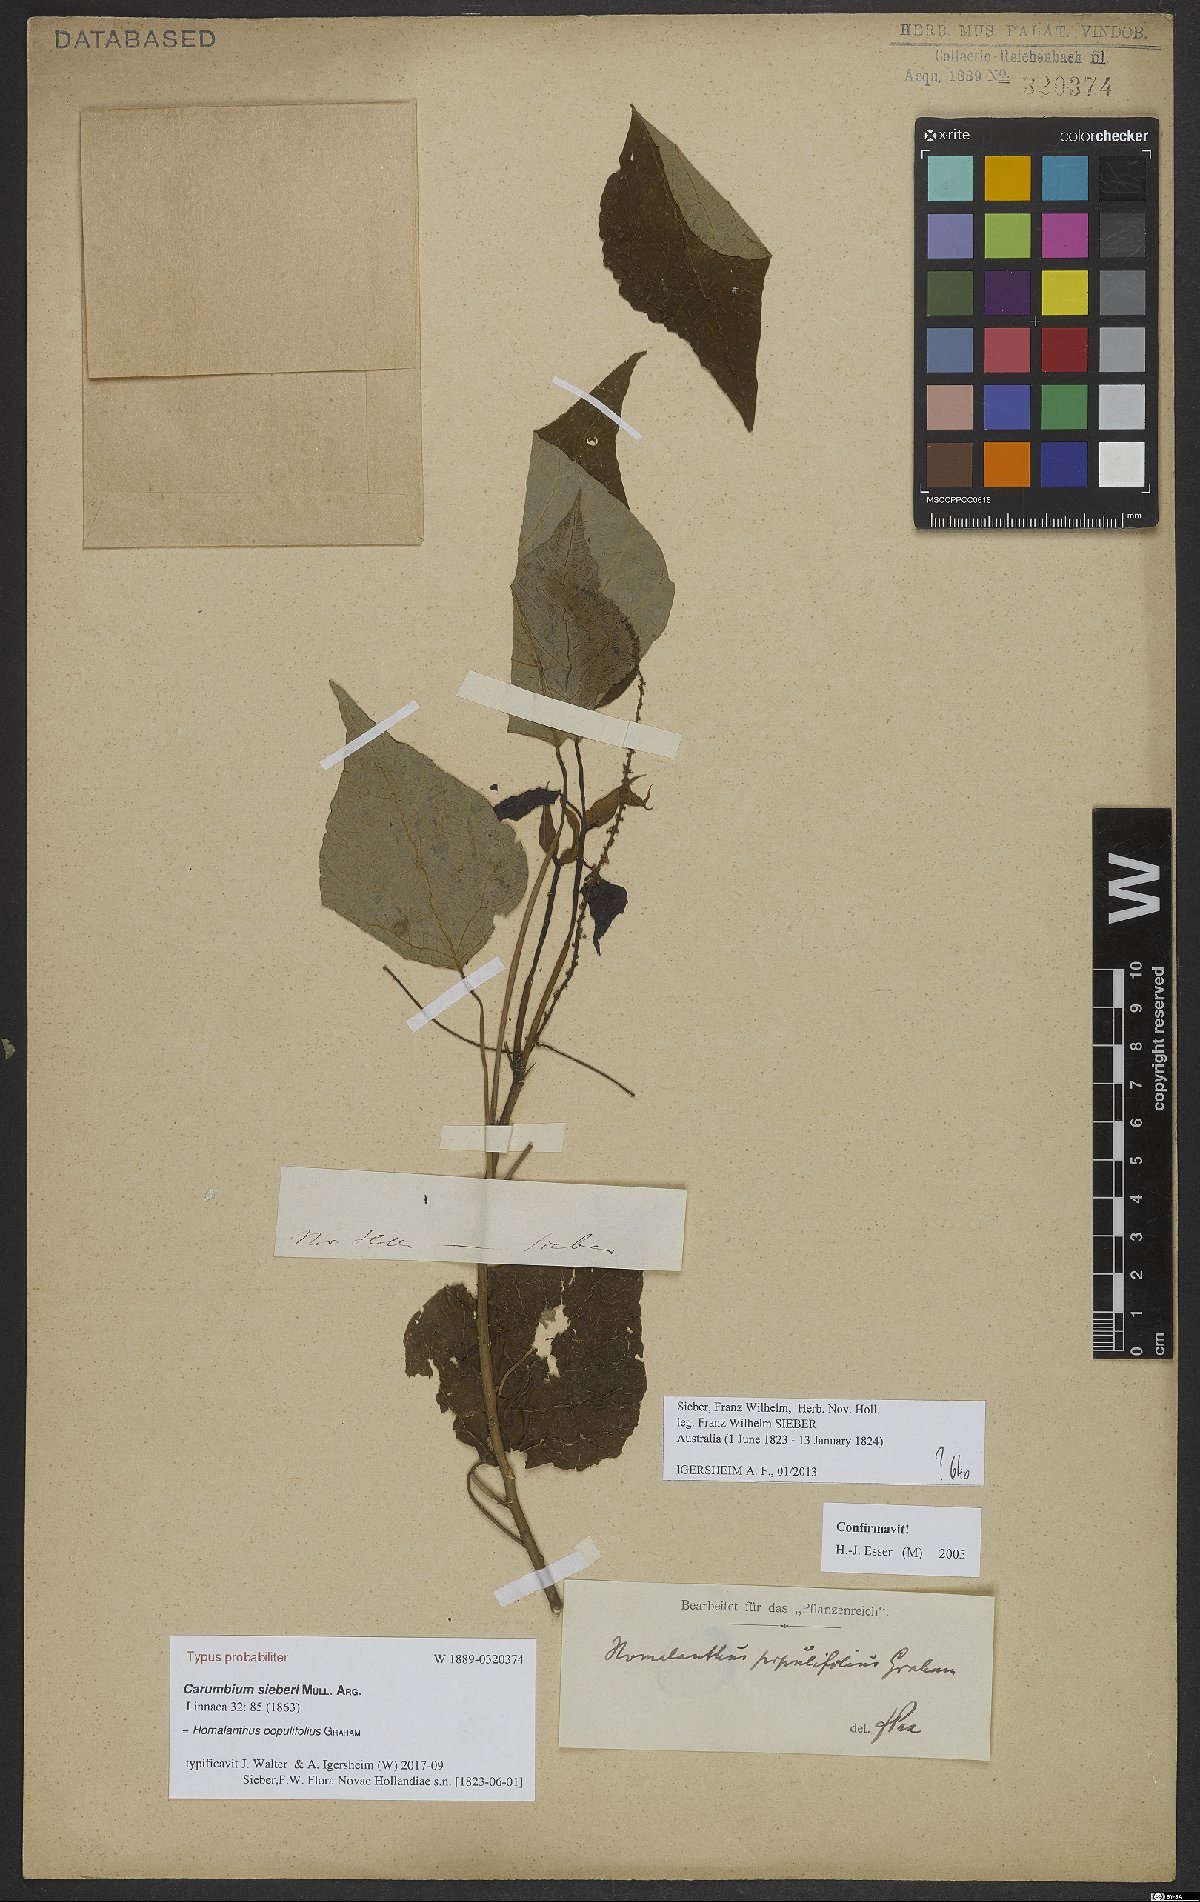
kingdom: Plantae
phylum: Tracheophyta
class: Magnoliopsida
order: Malpighiales
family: Euphorbiaceae
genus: Homalanthus
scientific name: Homalanthus populifolius
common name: Queensland poplar
